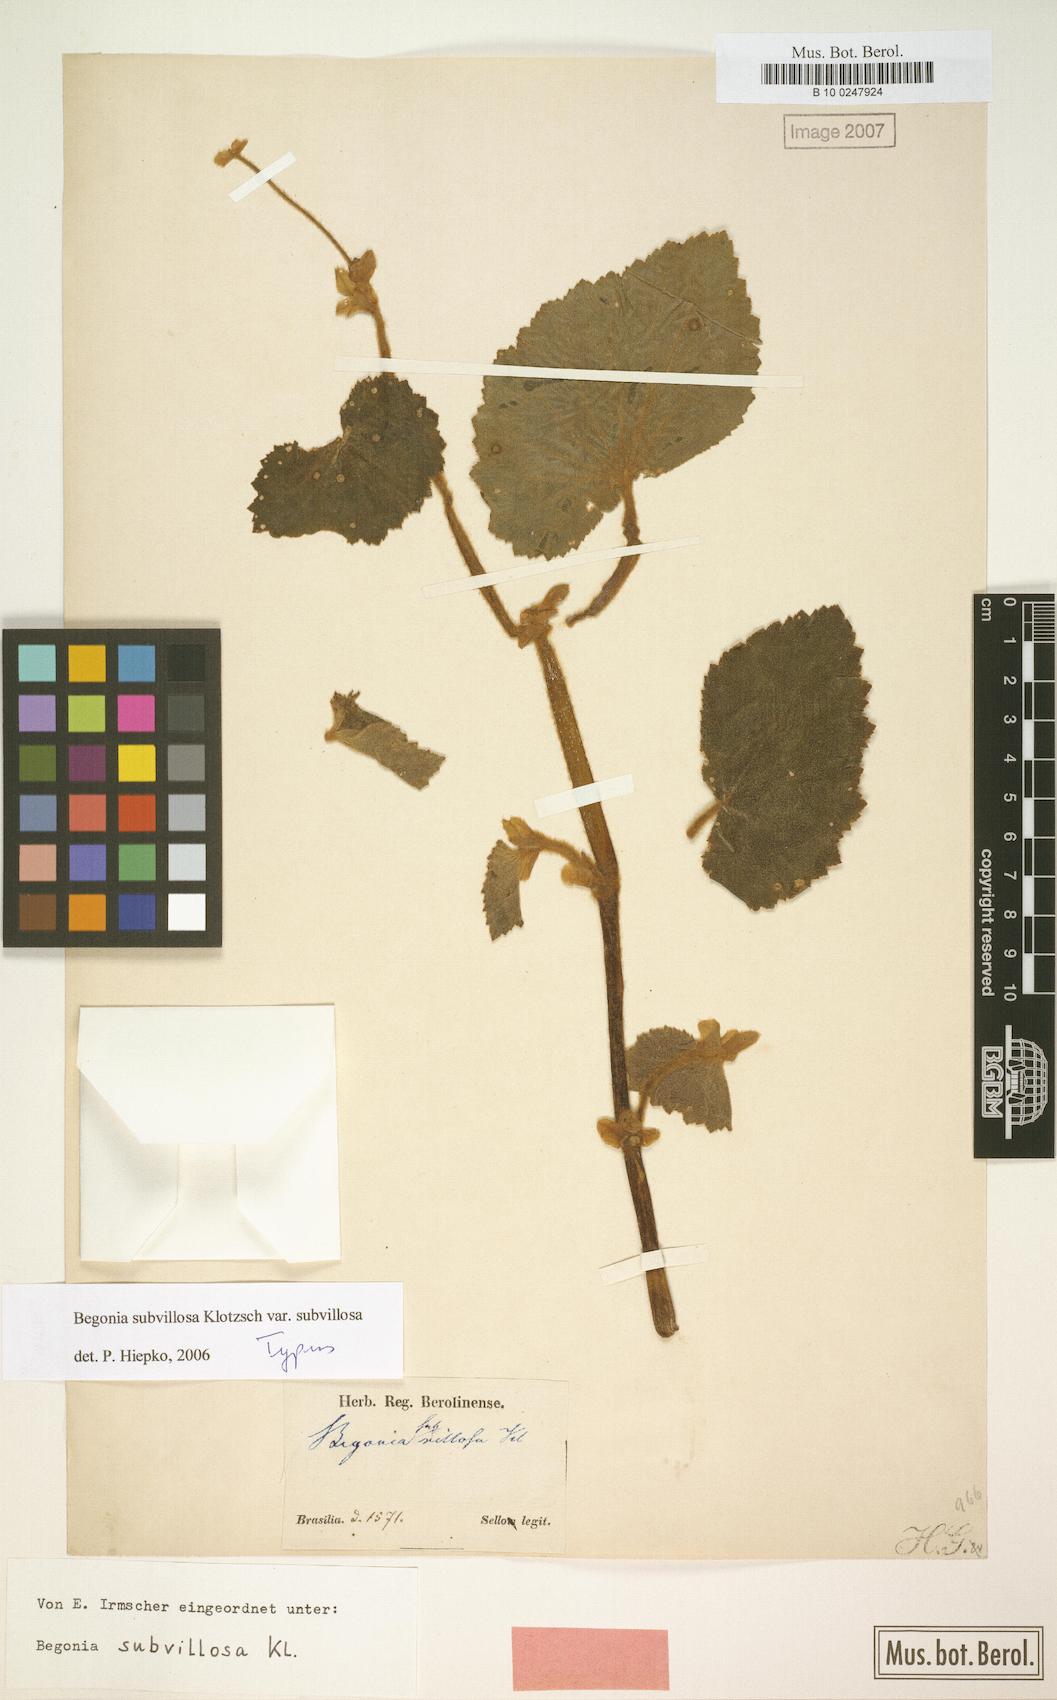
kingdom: Plantae
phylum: Tracheophyta
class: Magnoliopsida
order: Cucurbitales
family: Begoniaceae
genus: Begonia
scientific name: Begonia subvillosa
